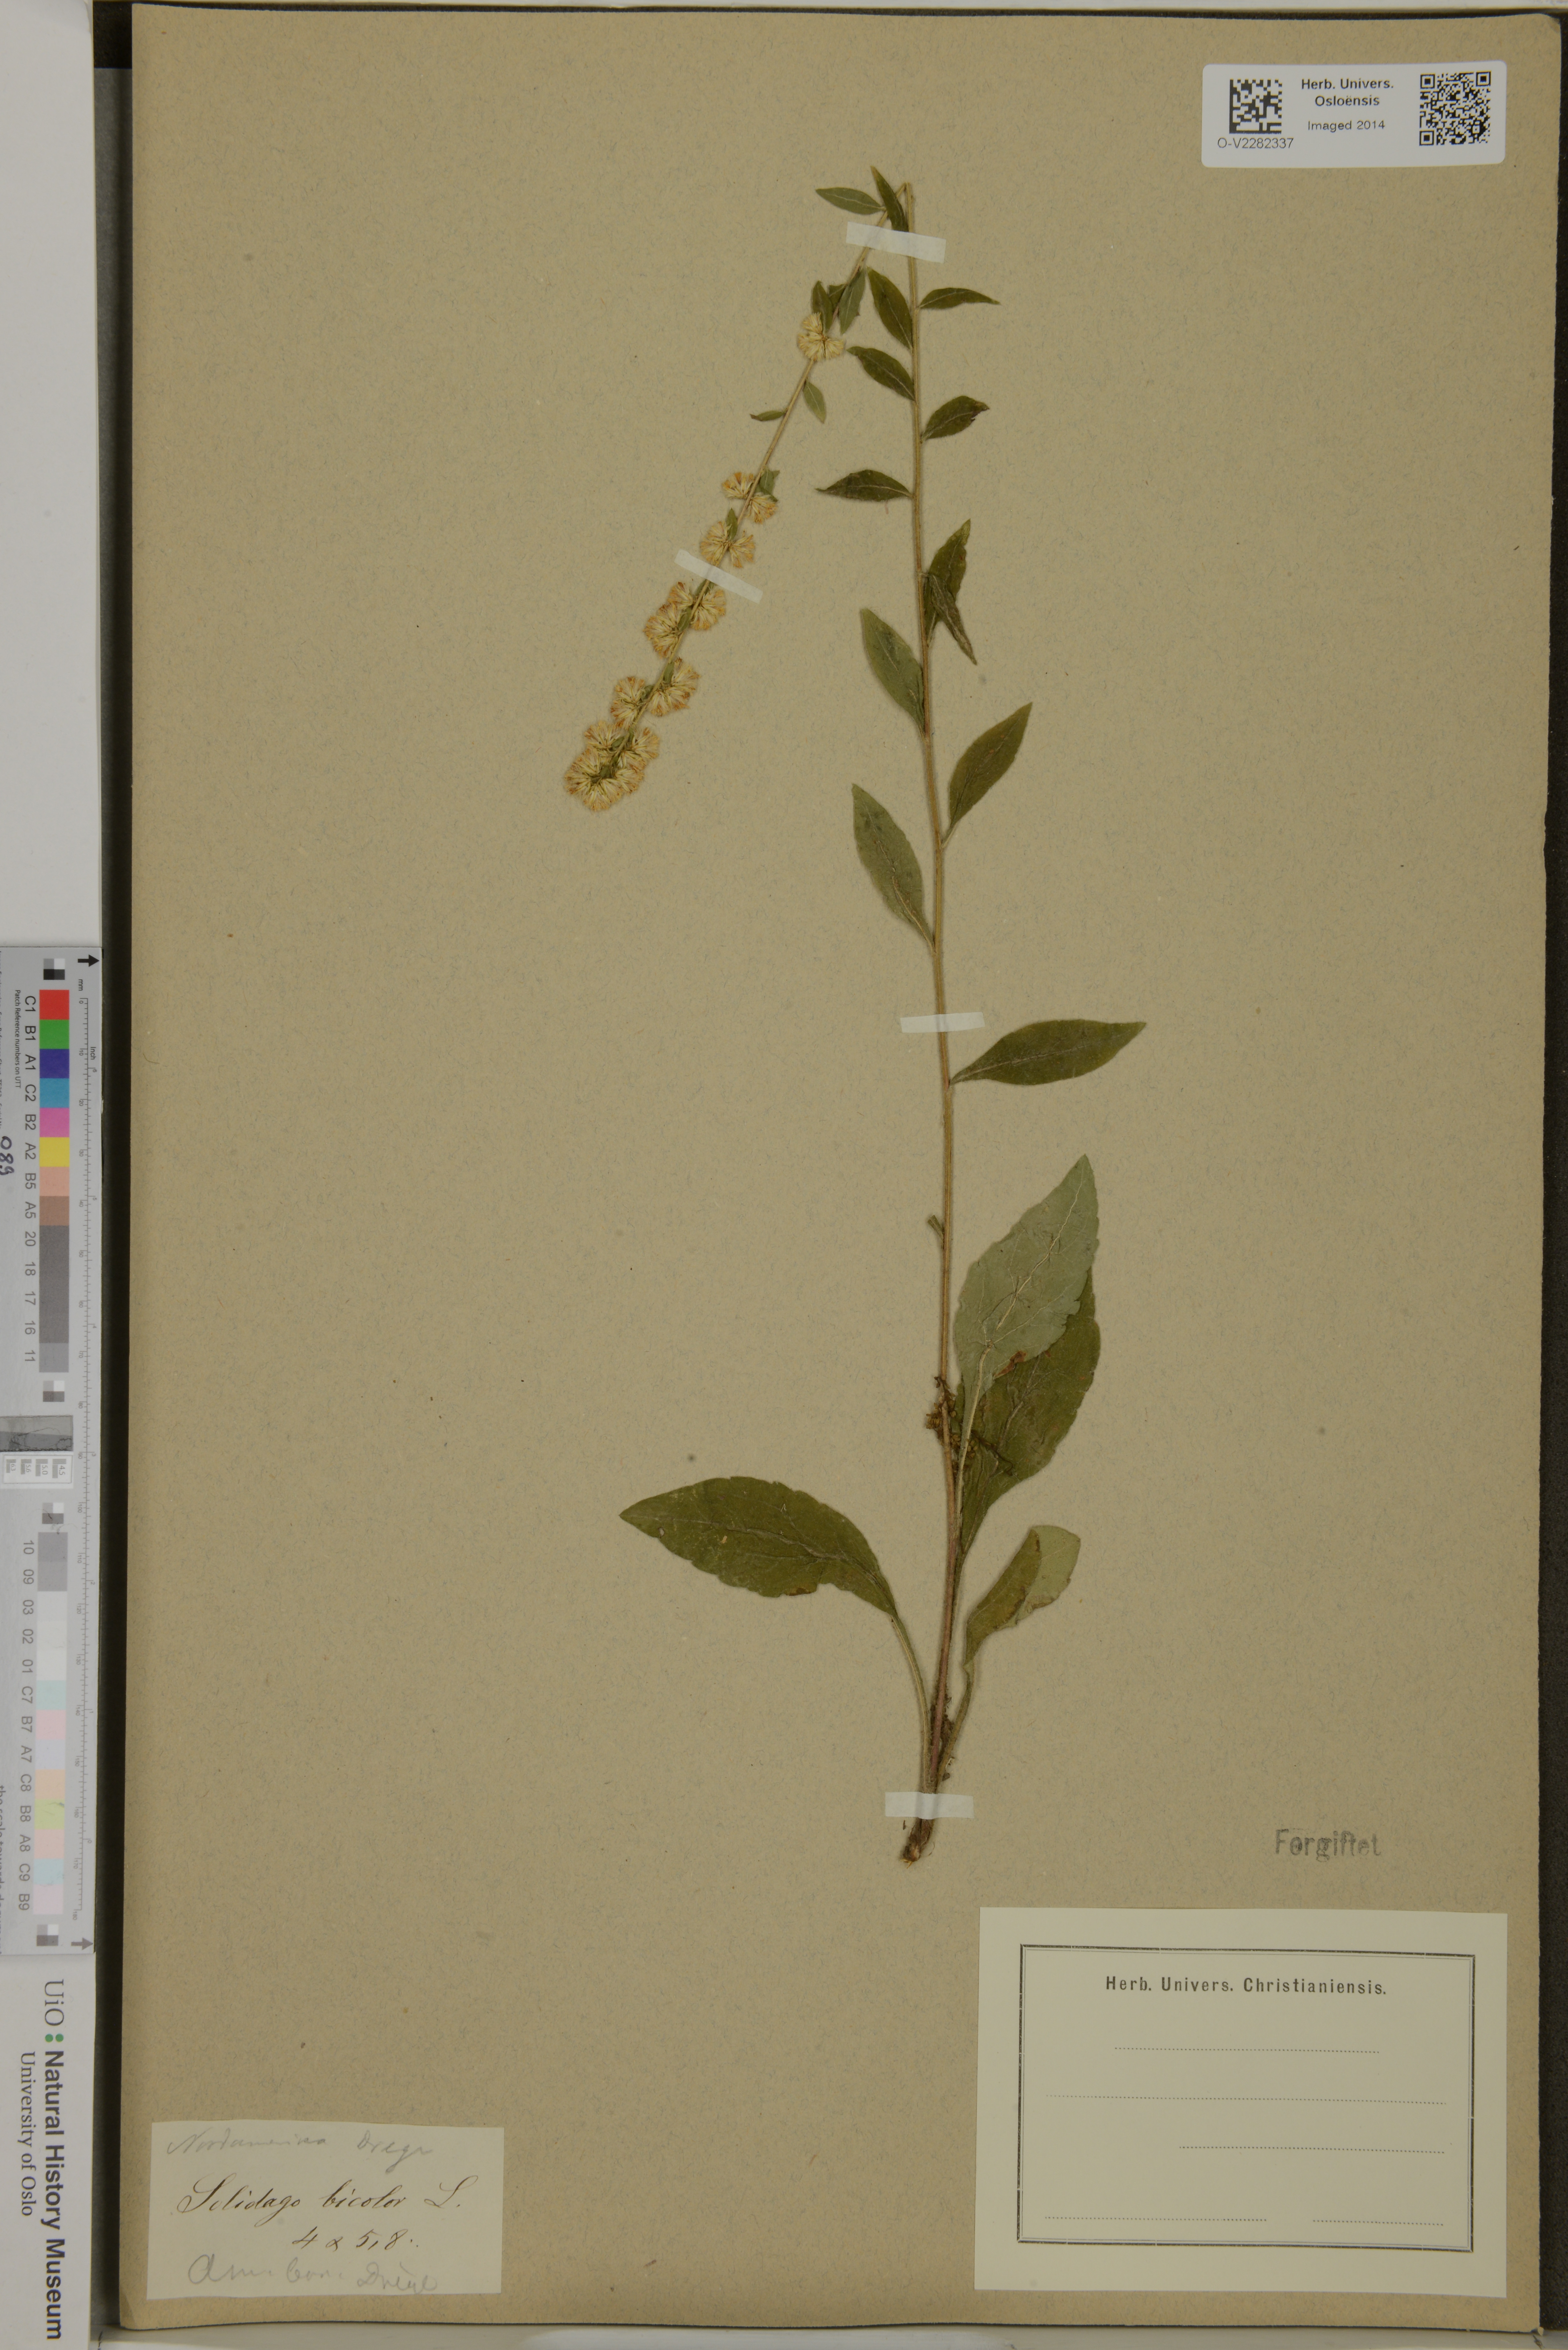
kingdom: Plantae
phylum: Tracheophyta
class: Magnoliopsida
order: Asterales
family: Asteraceae
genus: Solidago
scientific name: Solidago bicolor
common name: Silverrod
